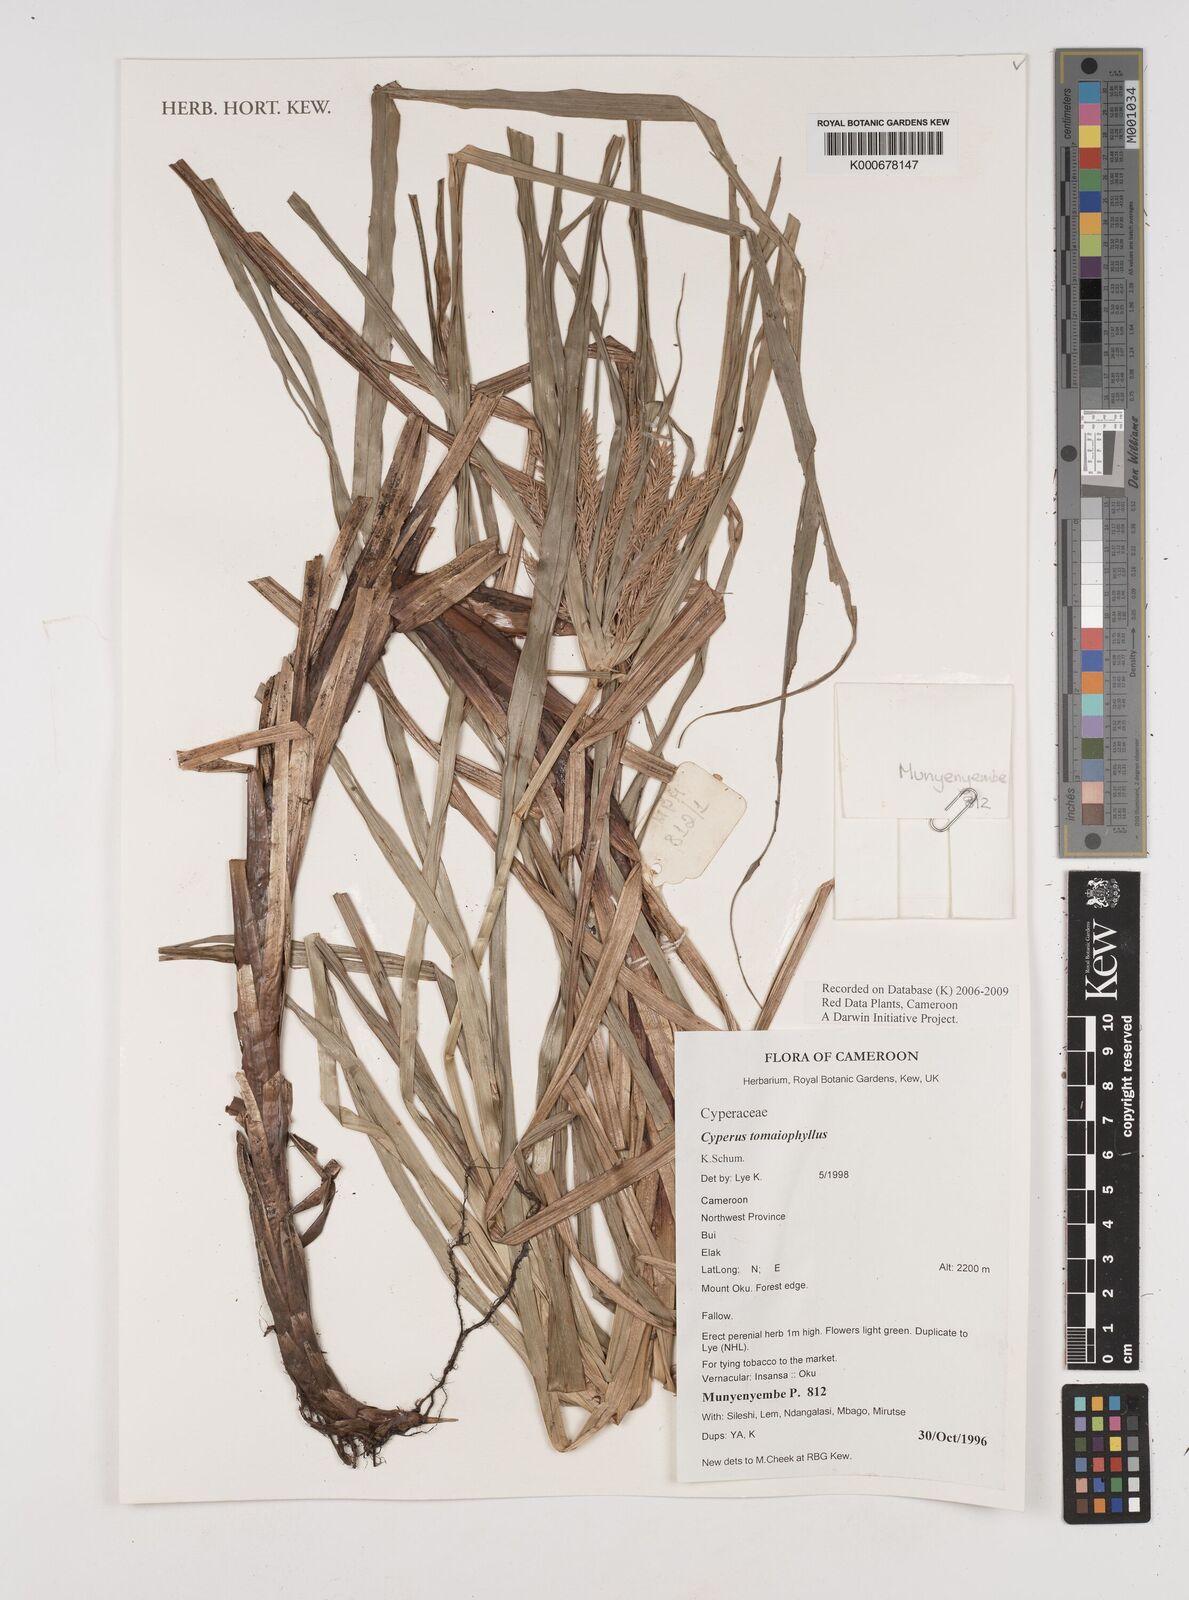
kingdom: Plantae
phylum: Tracheophyta
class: Liliopsida
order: Poales
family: Cyperaceae
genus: Cyperus
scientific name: Cyperus tomaiophyllus
